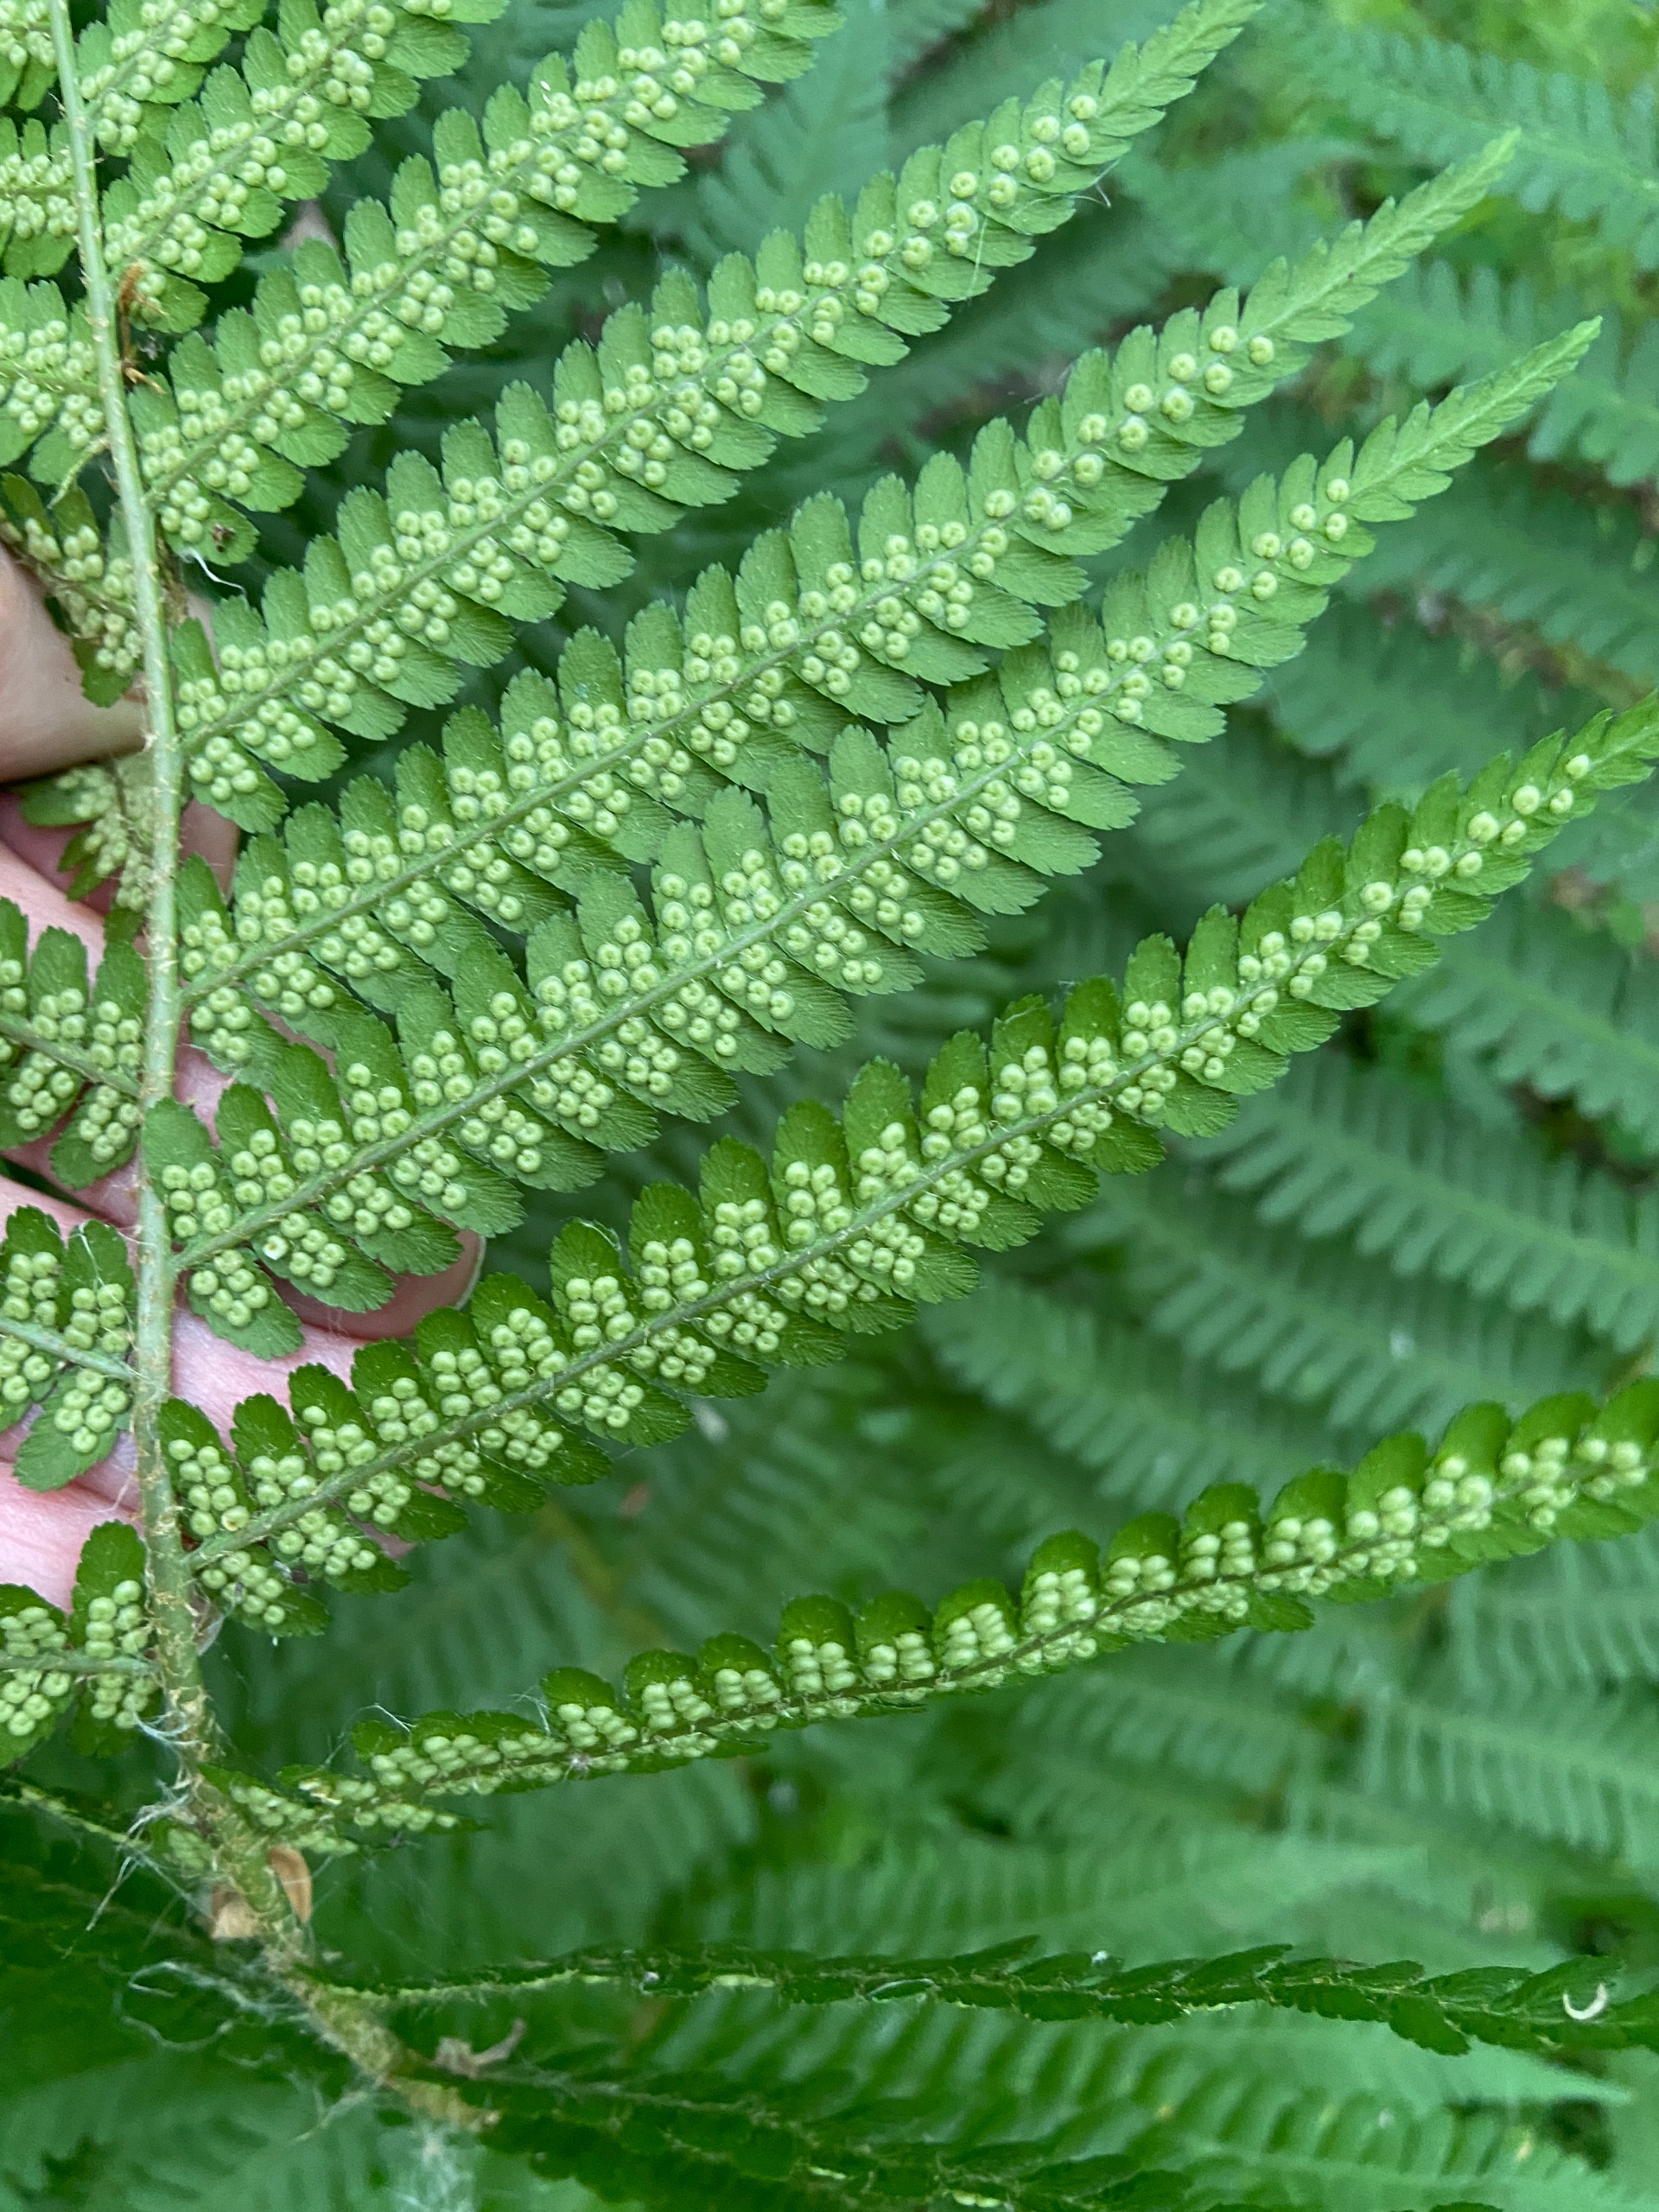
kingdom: Plantae
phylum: Tracheophyta
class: Polypodiopsida
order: Polypodiales
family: Dryopteridaceae
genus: Dryopteris
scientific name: Dryopteris filix-mas
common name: Almindelig mangeløv
